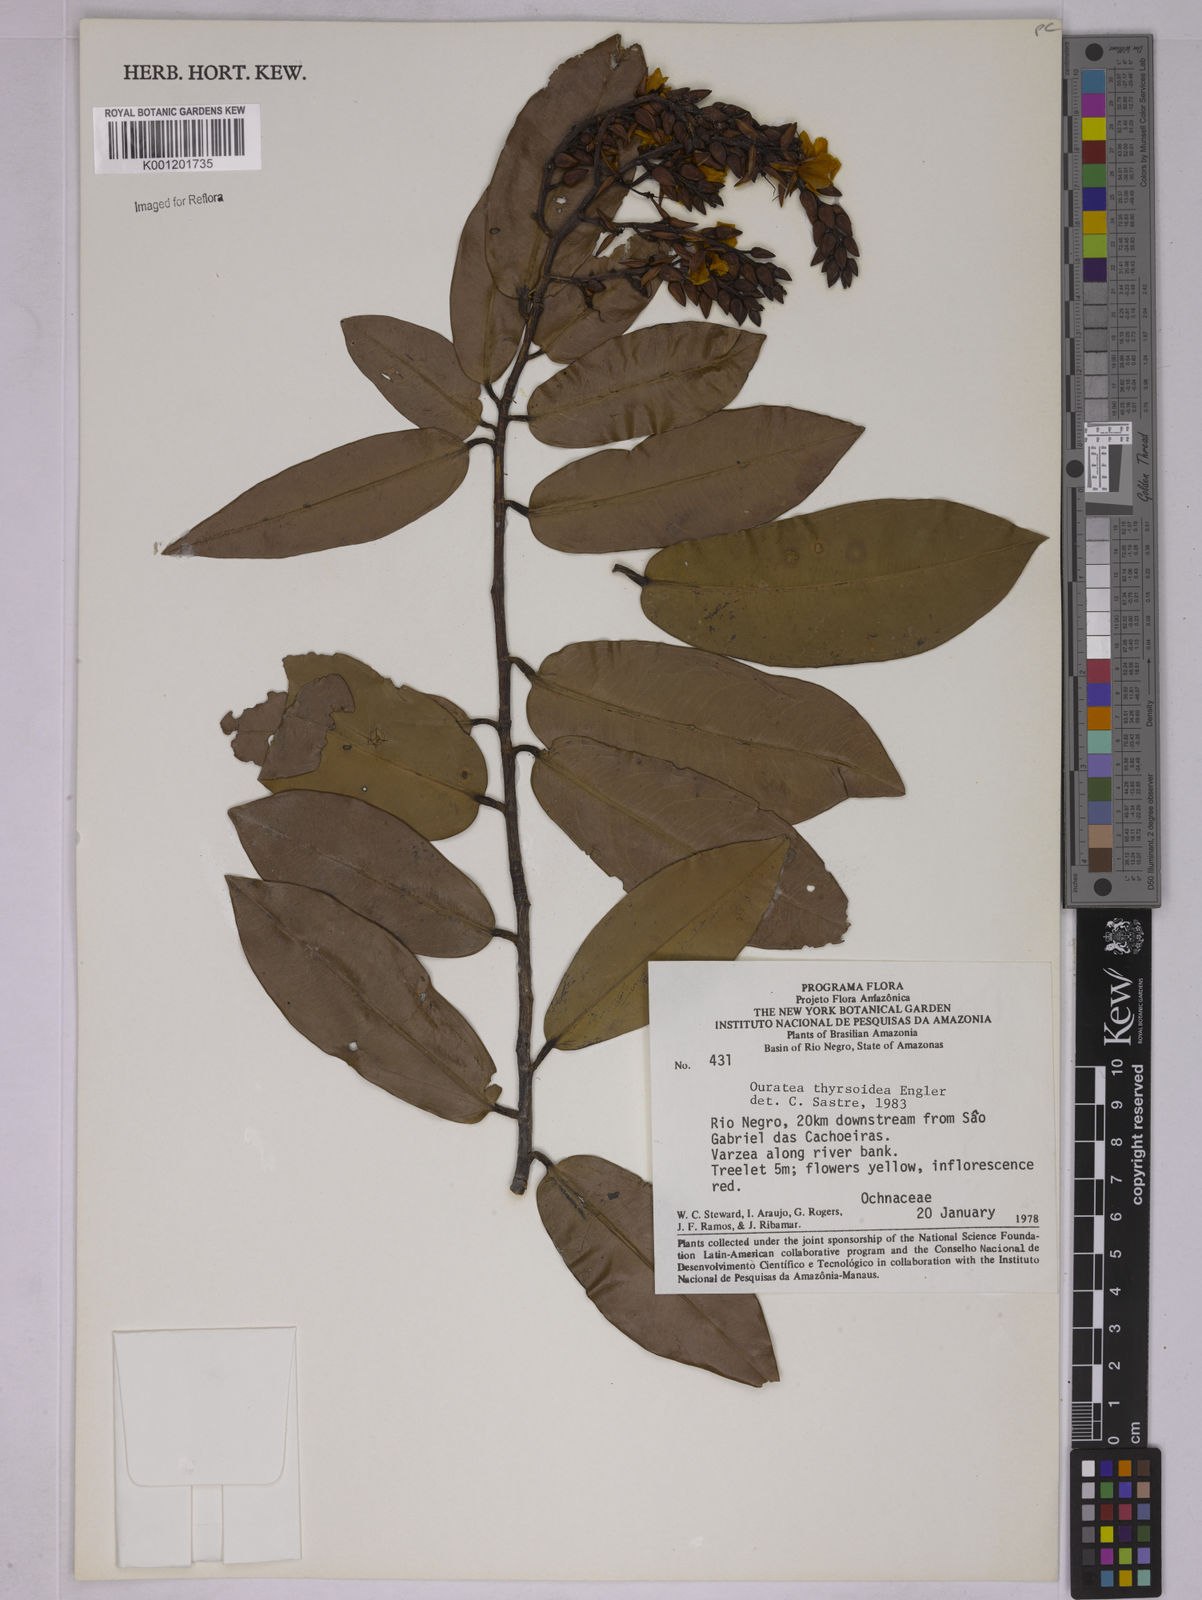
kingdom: Plantae
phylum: Tracheophyta
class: Magnoliopsida
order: Malpighiales
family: Ochnaceae
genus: Ouratea
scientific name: Ouratea thyrsoidea
